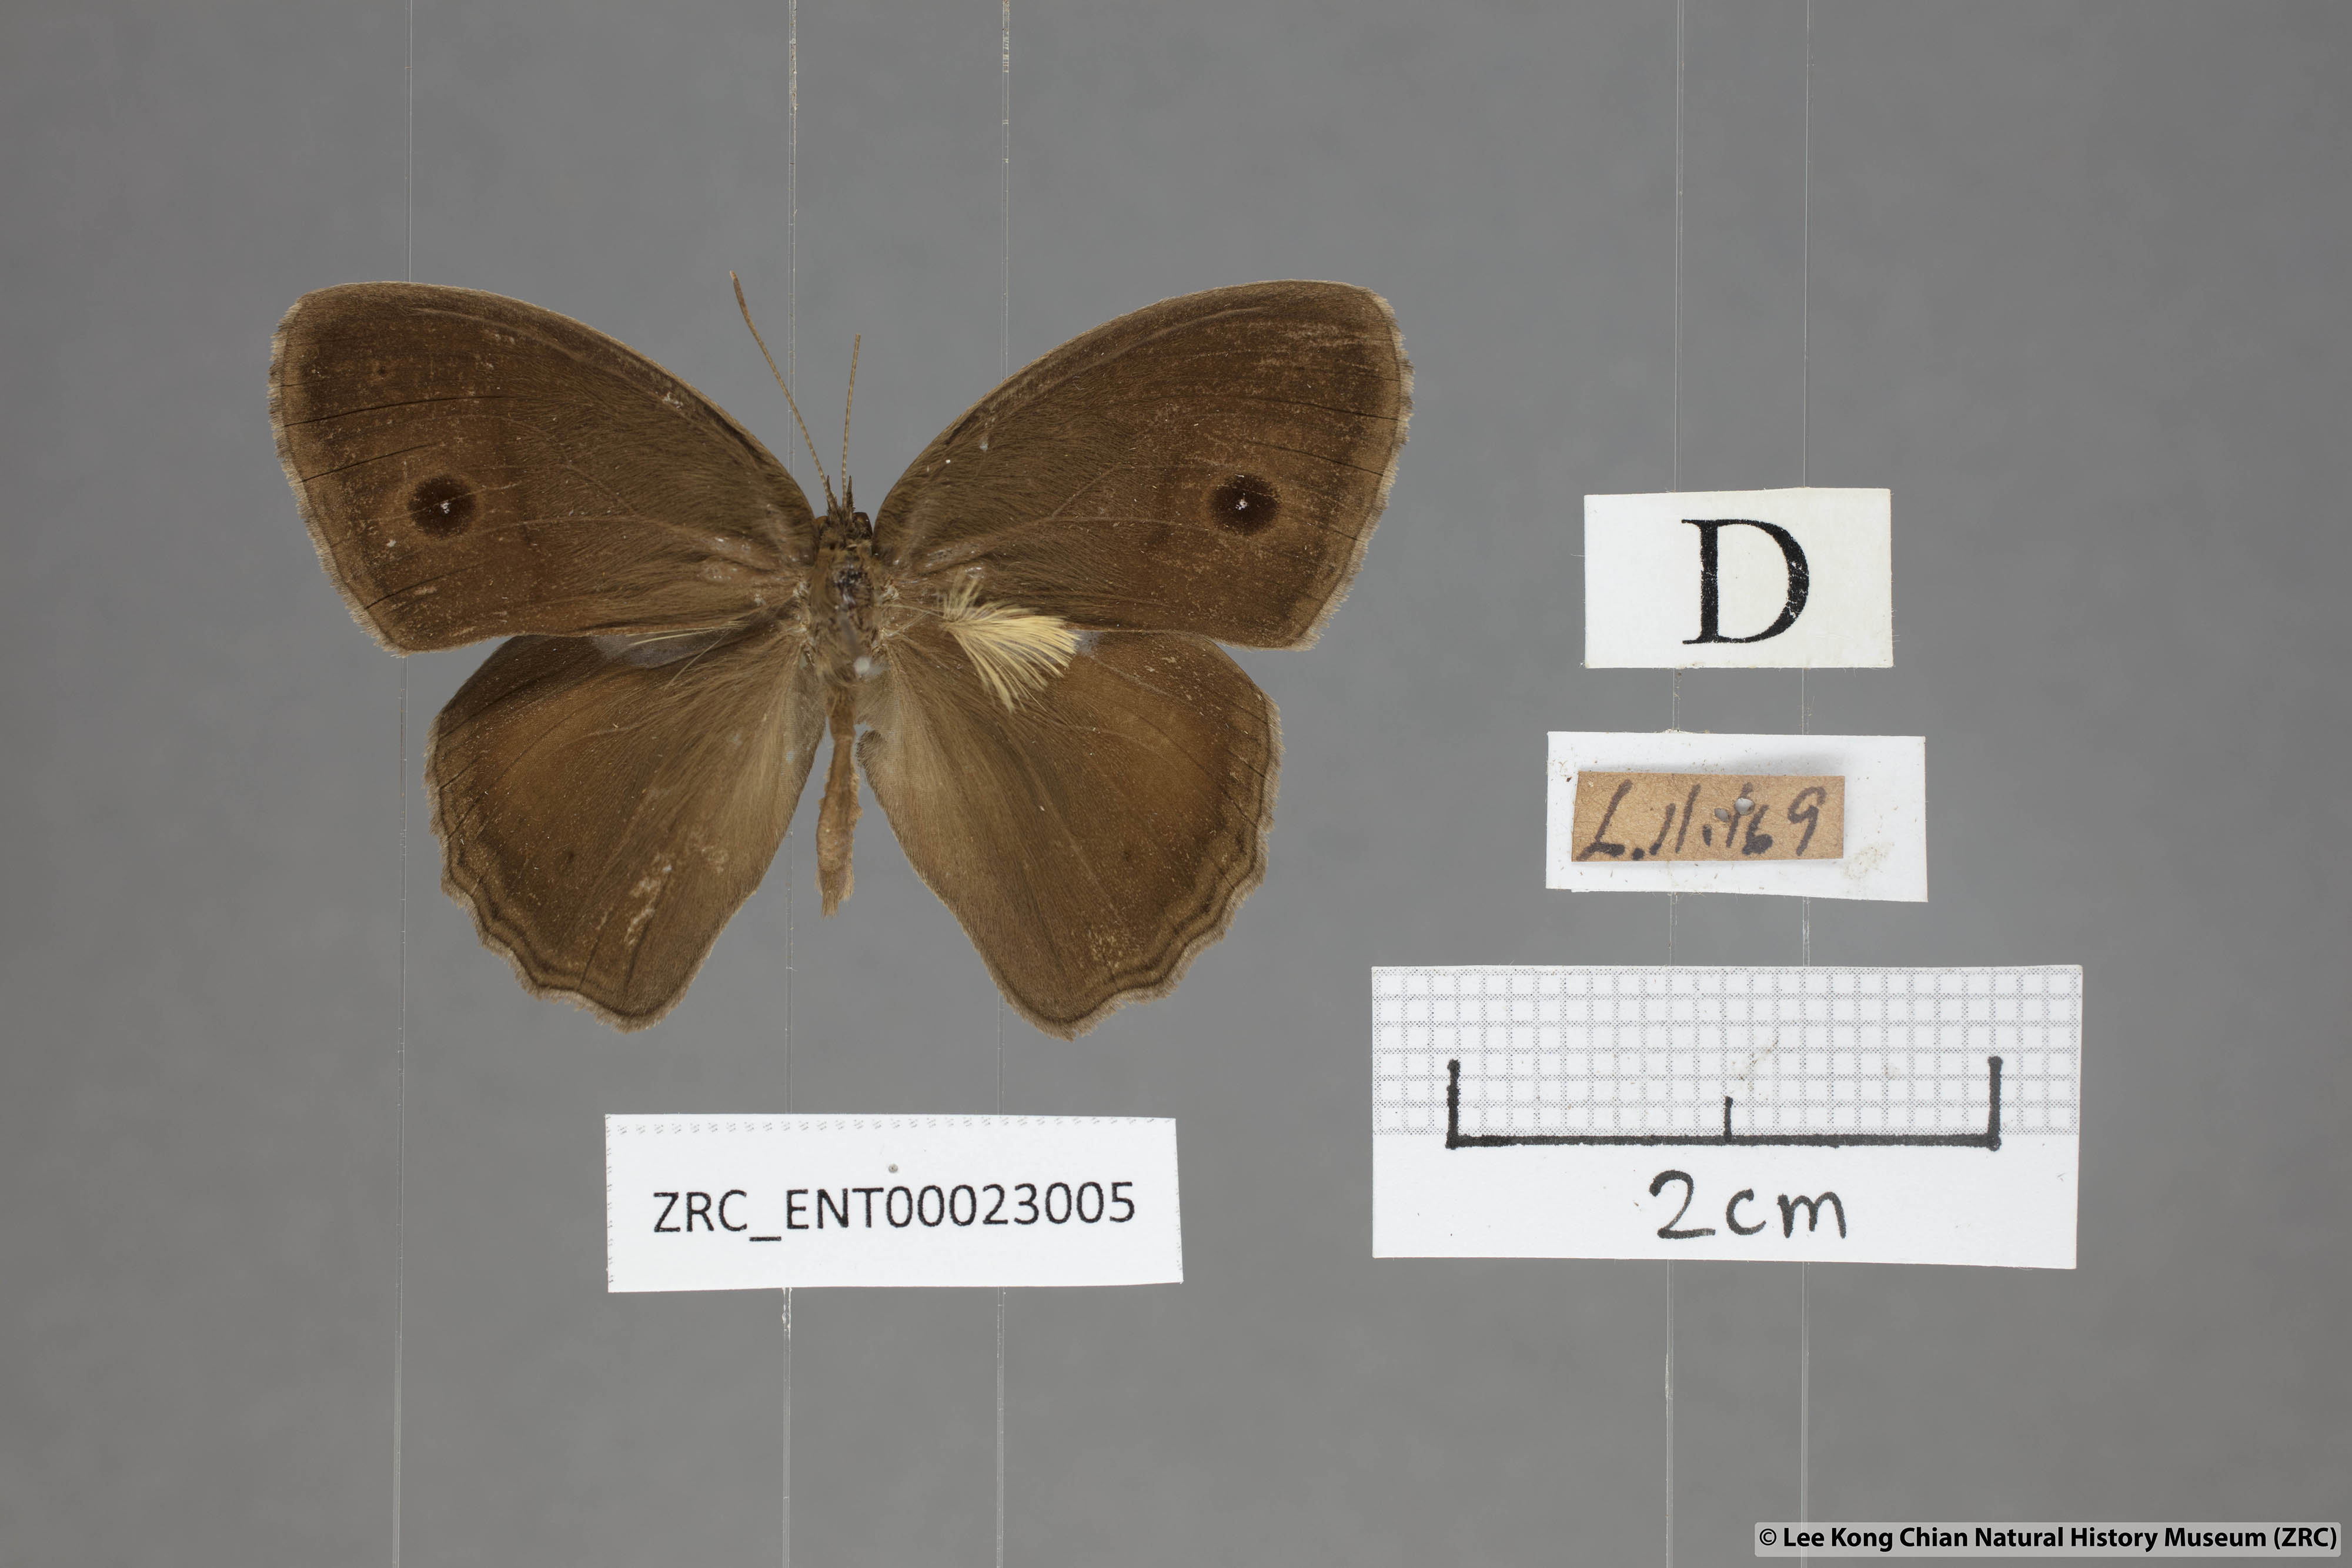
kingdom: Animalia
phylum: Arthropoda
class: Insecta
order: Lepidoptera
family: Nymphalidae
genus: Mycalesis
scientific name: Mycalesis perseus
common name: Dingy bushbrown
